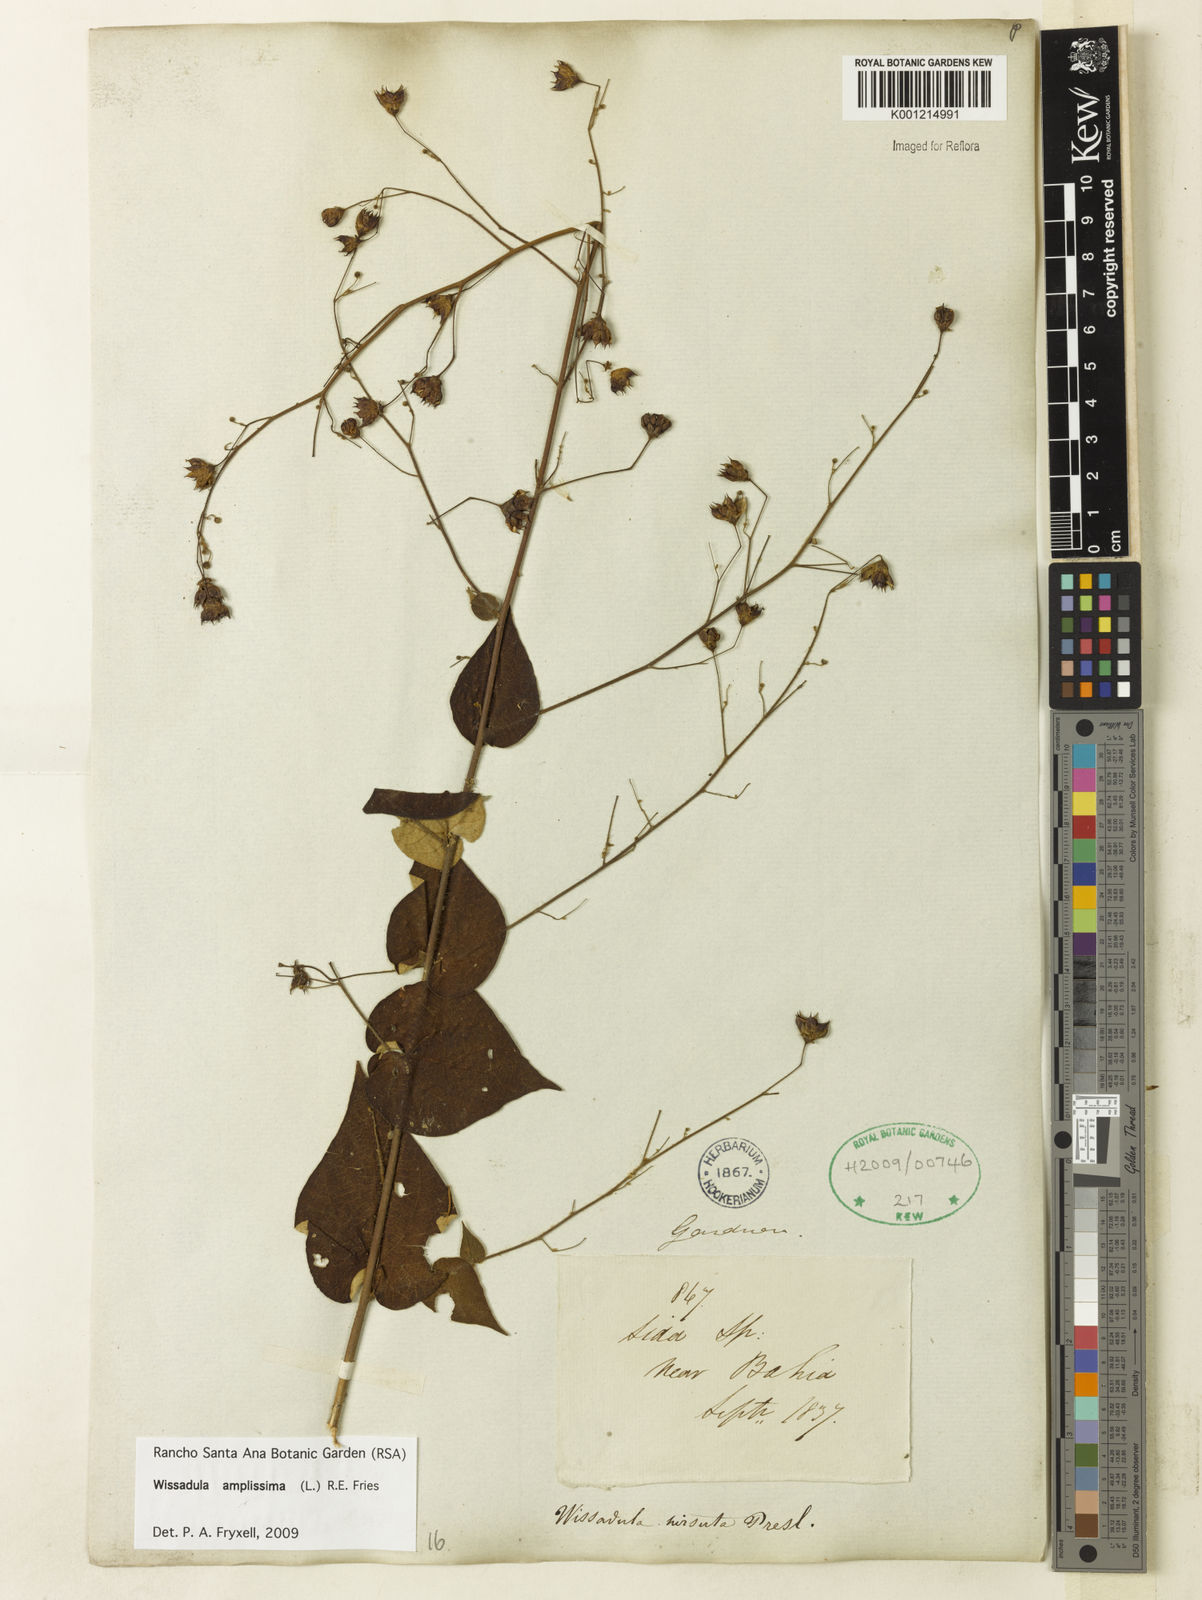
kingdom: Plantae
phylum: Tracheophyta
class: Magnoliopsida
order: Malvales
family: Malvaceae
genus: Wissadula
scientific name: Wissadula amplissima
